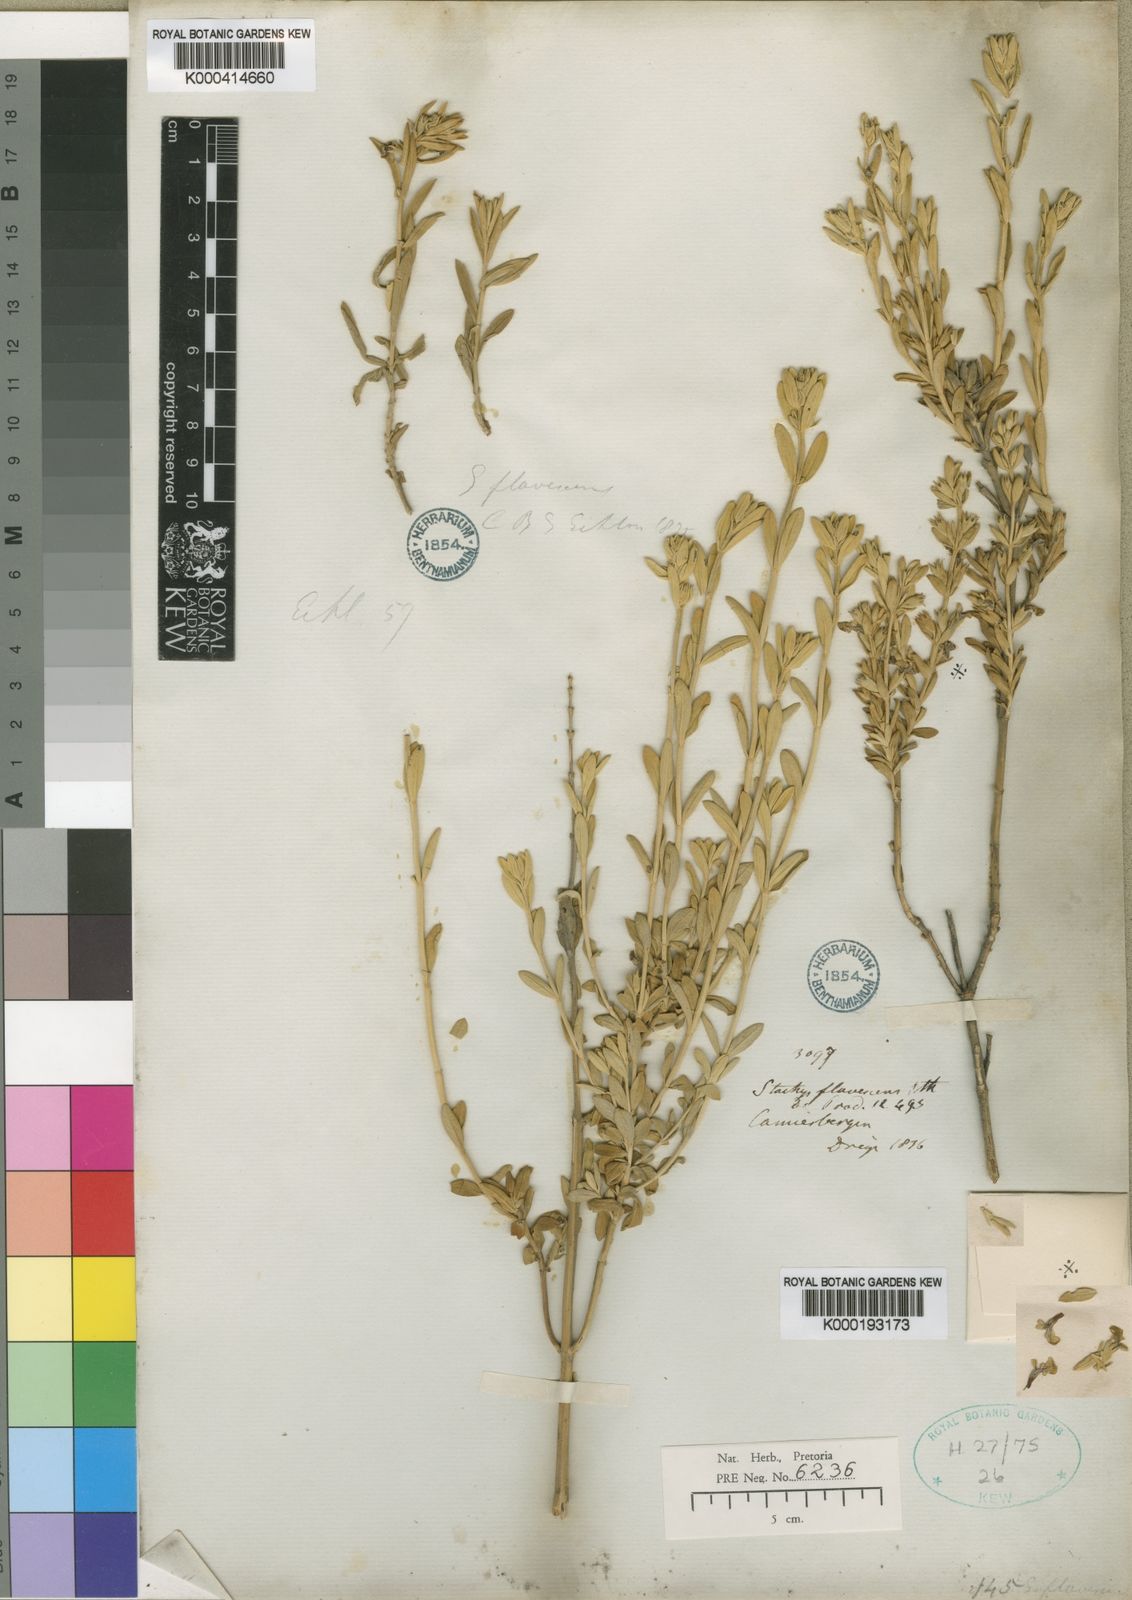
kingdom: Plantae
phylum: Tracheophyta
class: Magnoliopsida
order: Lamiales
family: Lamiaceae
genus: Stachys
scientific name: Stachys flavescens
